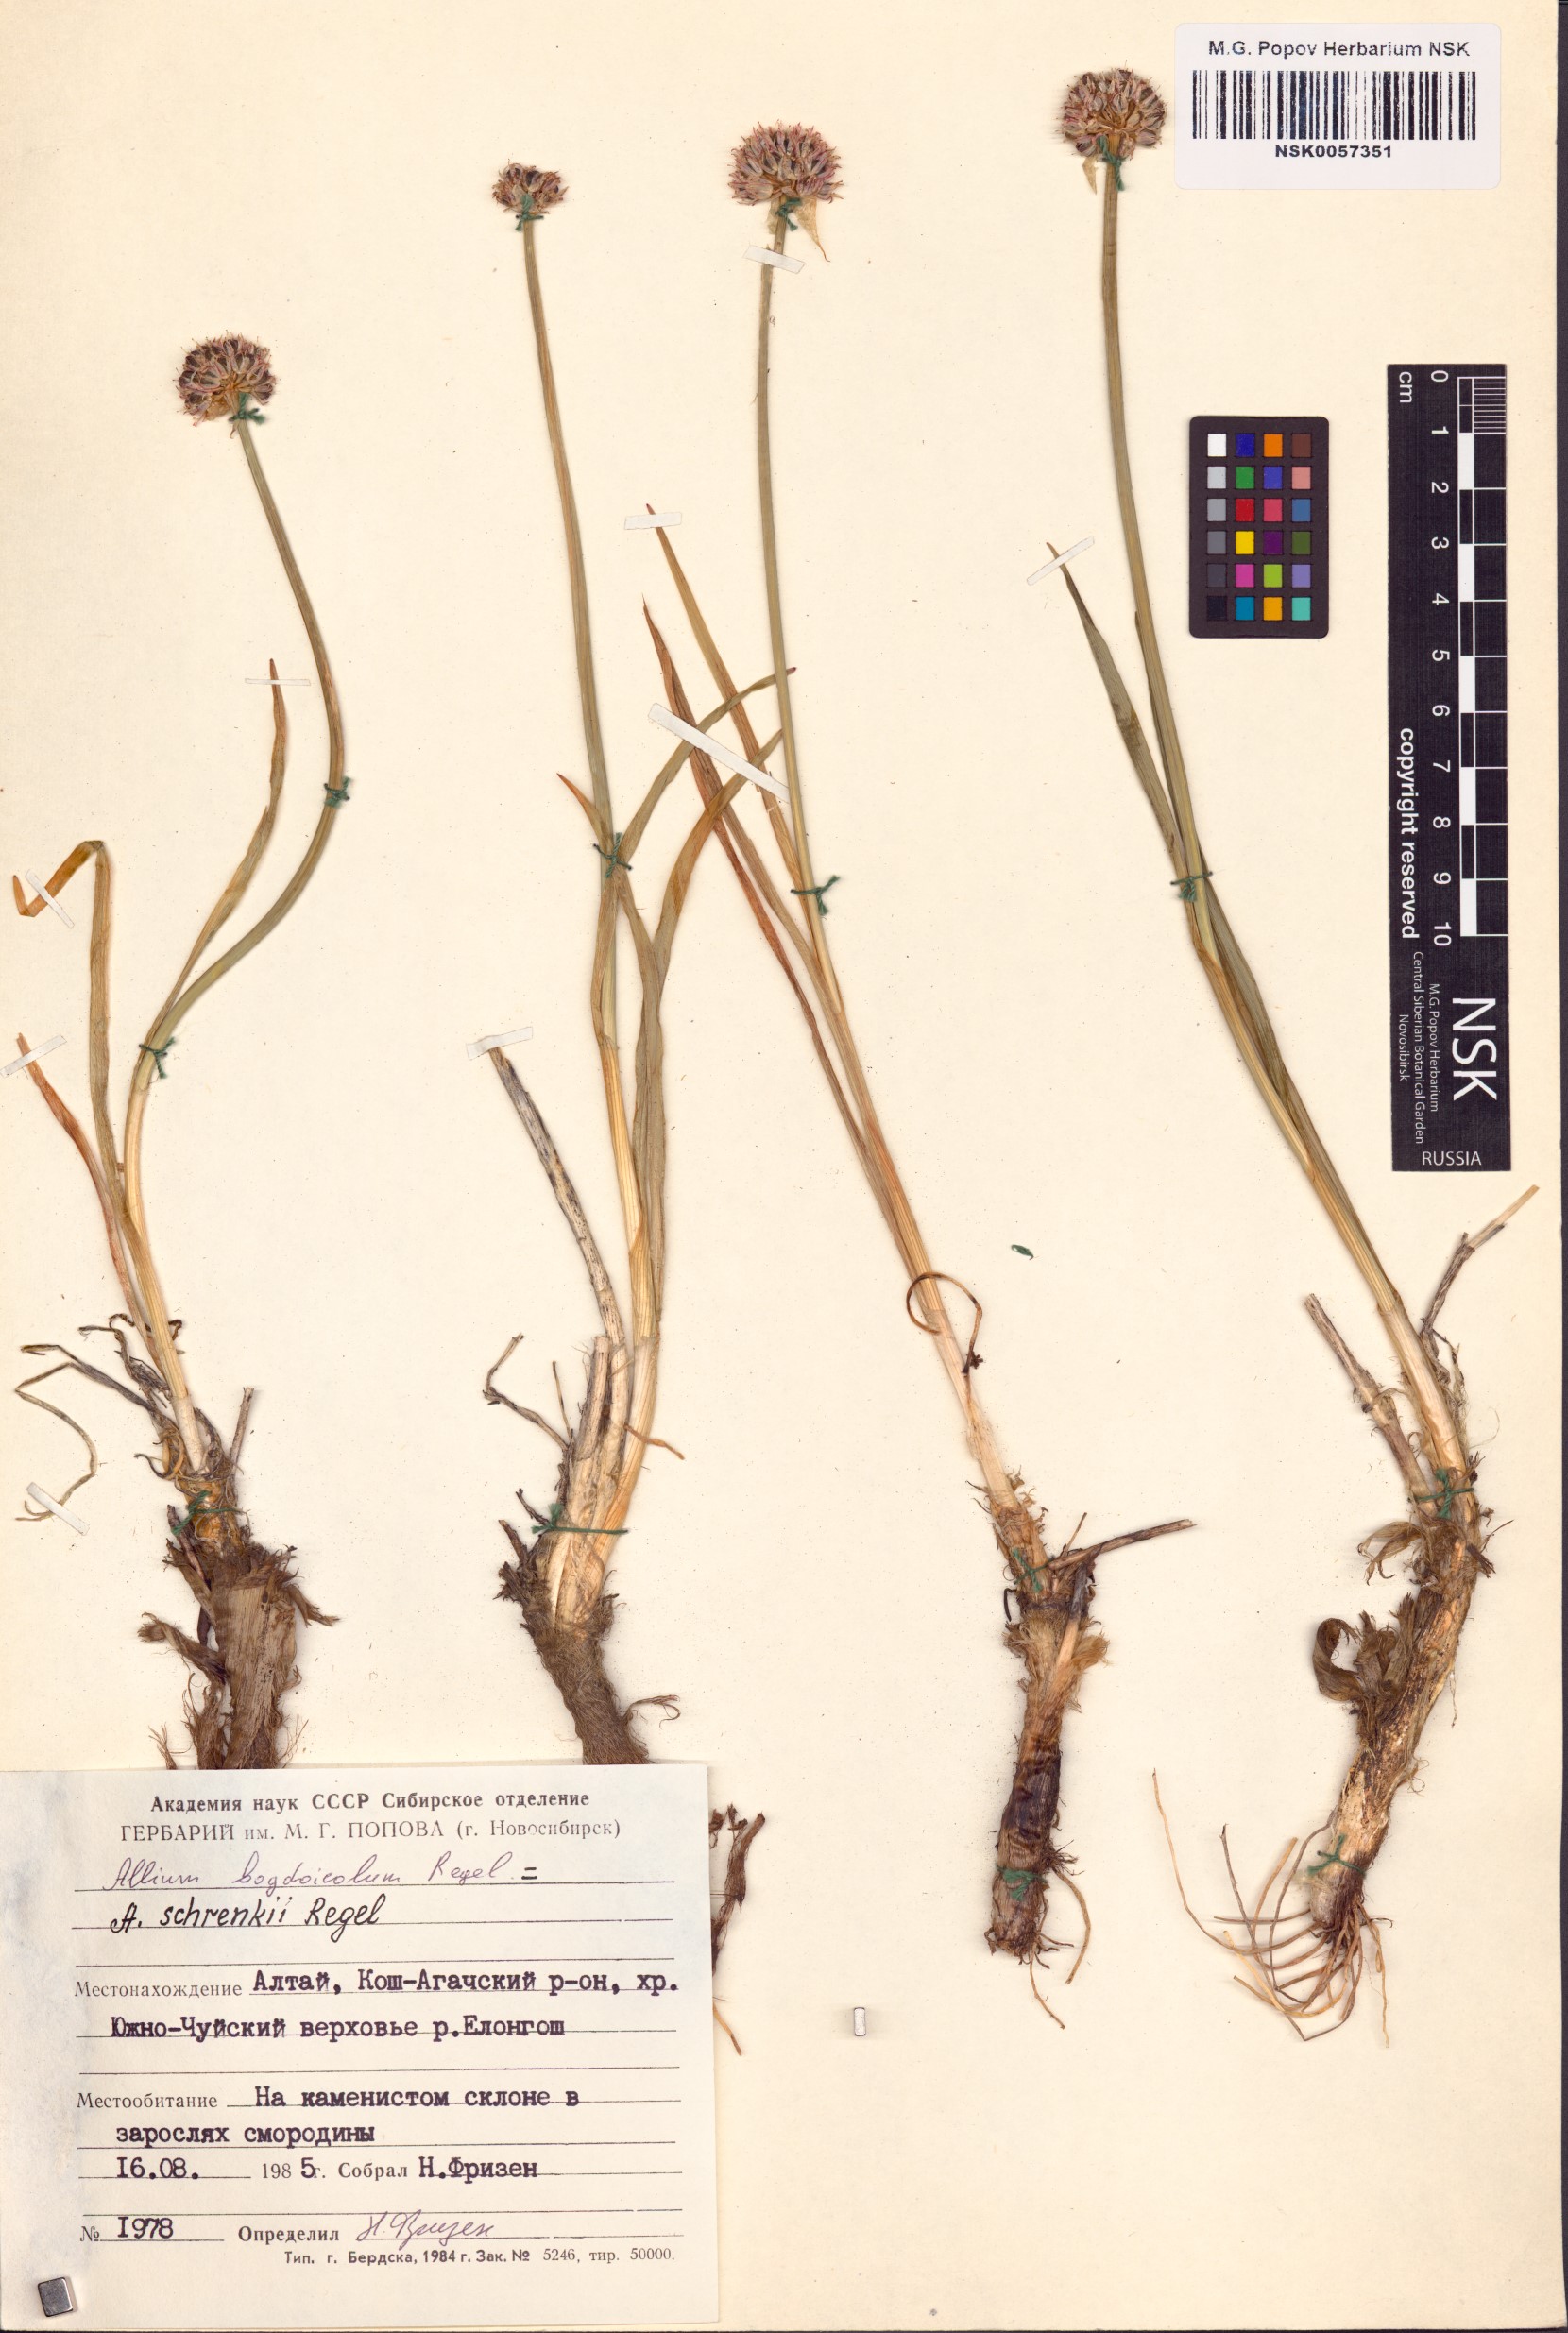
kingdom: Plantae
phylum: Tracheophyta
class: Liliopsida
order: Asparagales
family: Amaryllidaceae
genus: Allium
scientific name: Allium schrenkii
